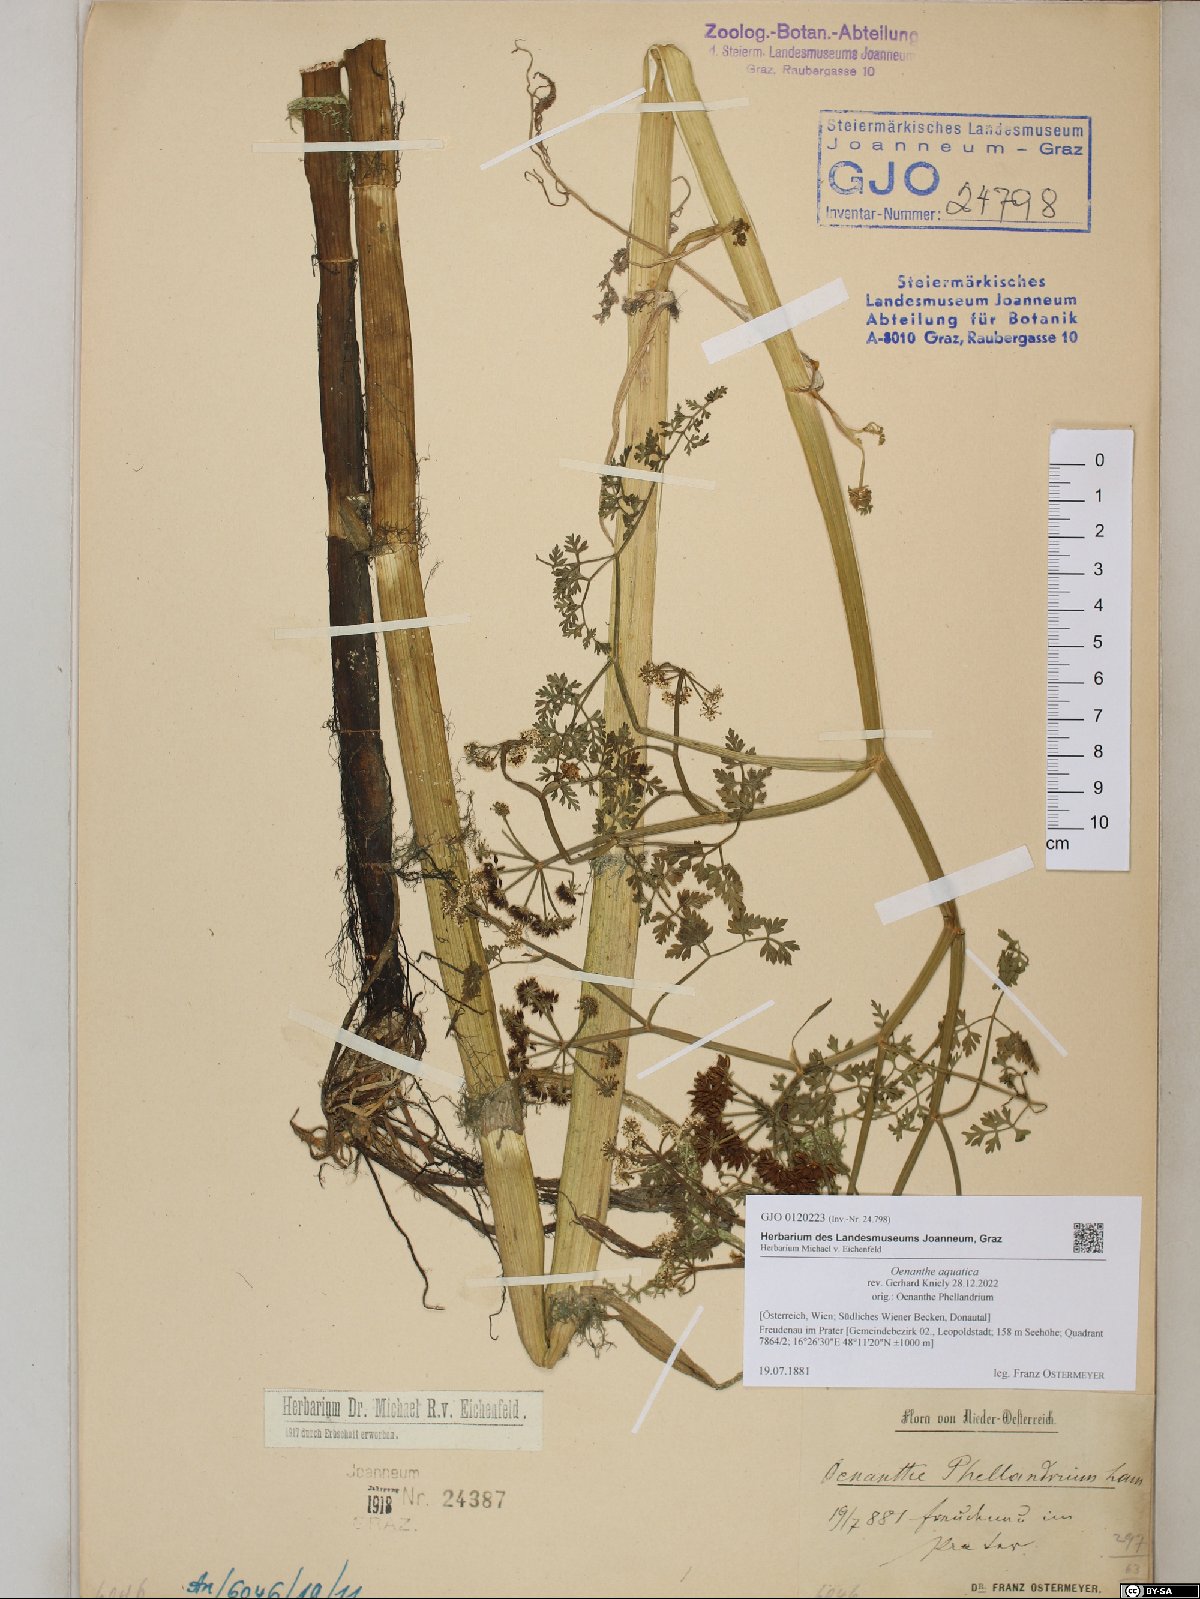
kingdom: Plantae
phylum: Tracheophyta
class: Magnoliopsida
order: Apiales
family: Apiaceae
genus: Oenanthe
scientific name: Oenanthe aquatica
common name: Fine-leaved water-dropwort
